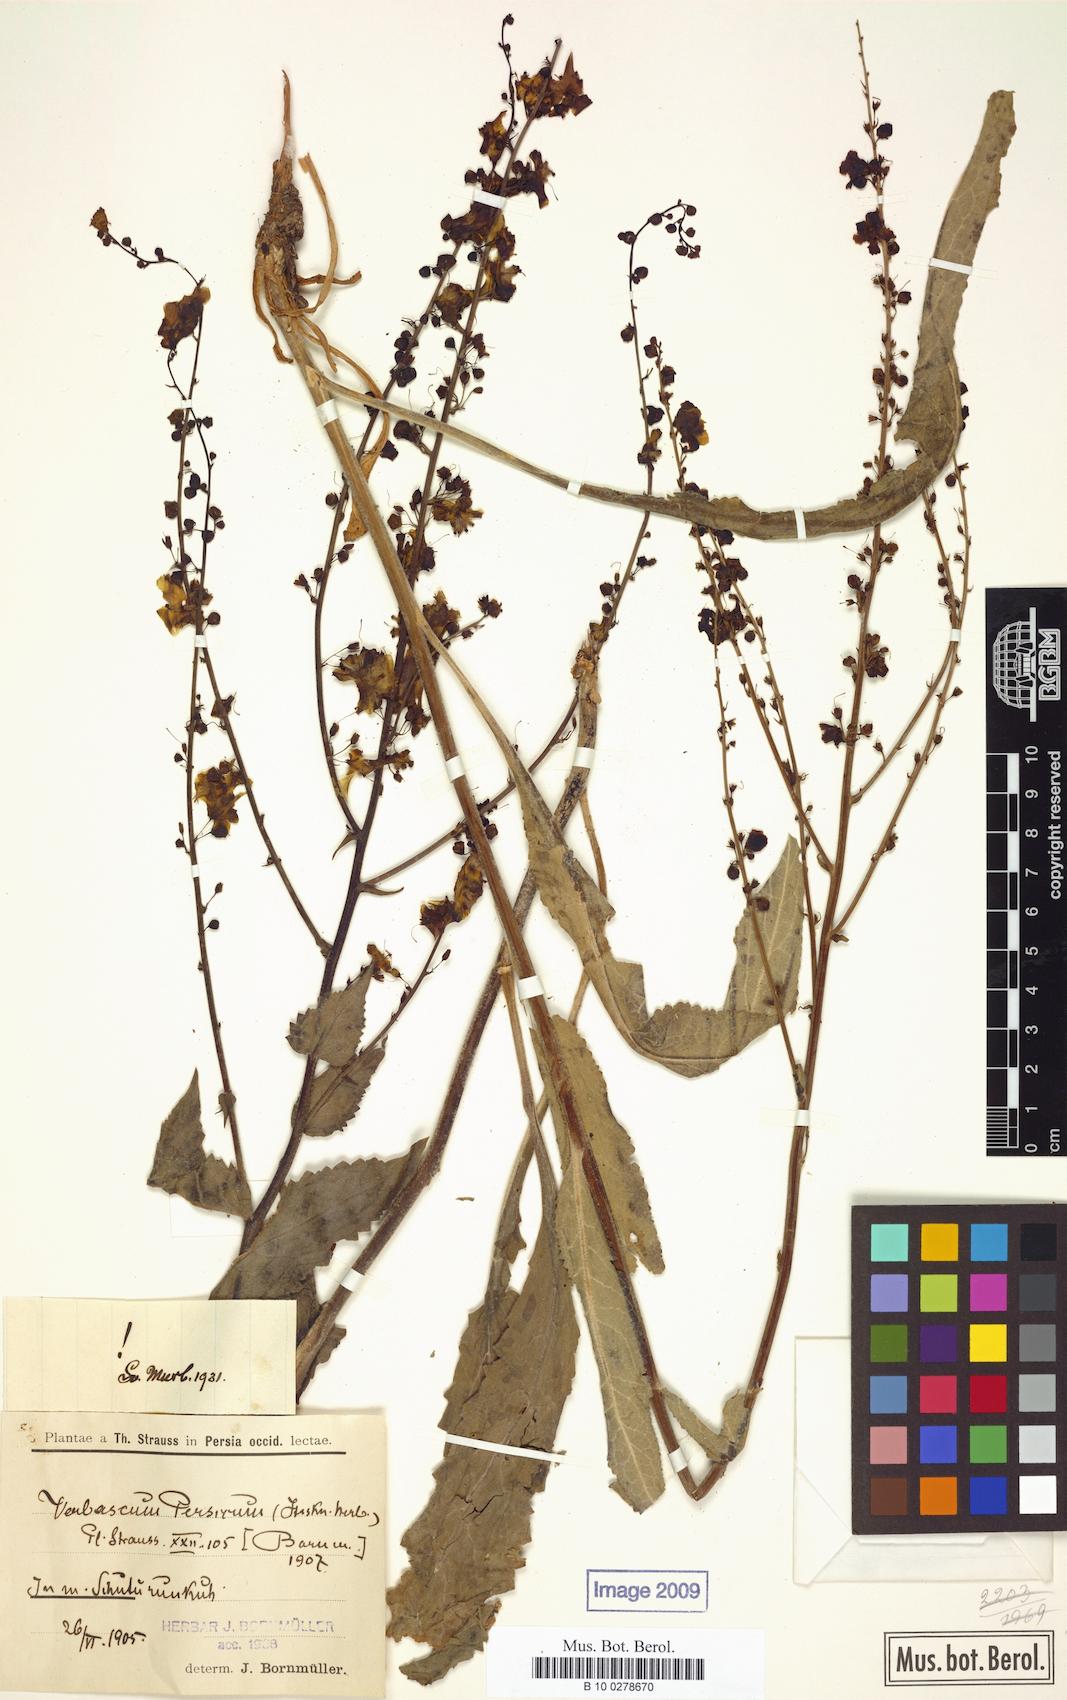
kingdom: Plantae
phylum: Tracheophyta
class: Magnoliopsida
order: Lamiales
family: Scrophulariaceae
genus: Verbascum
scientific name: Verbascum haussknechtianum
